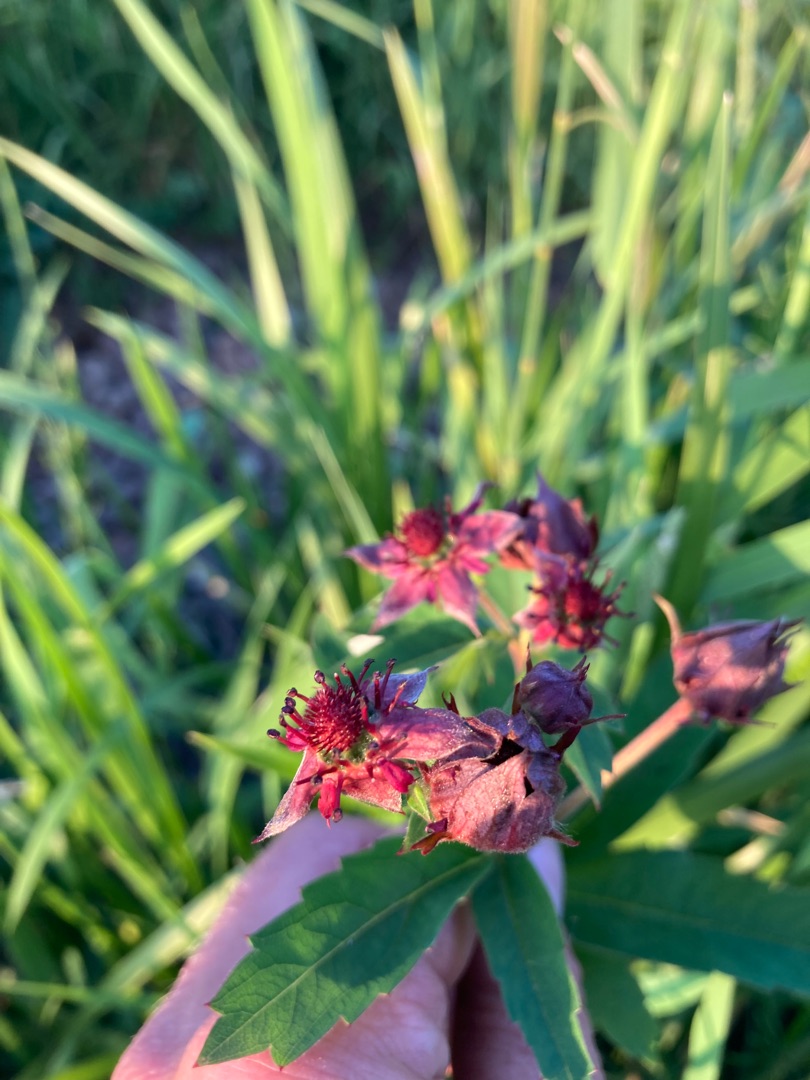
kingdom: Plantae
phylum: Tracheophyta
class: Magnoliopsida
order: Rosales
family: Rosaceae
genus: Comarum
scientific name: Comarum palustre
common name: Kragefod
